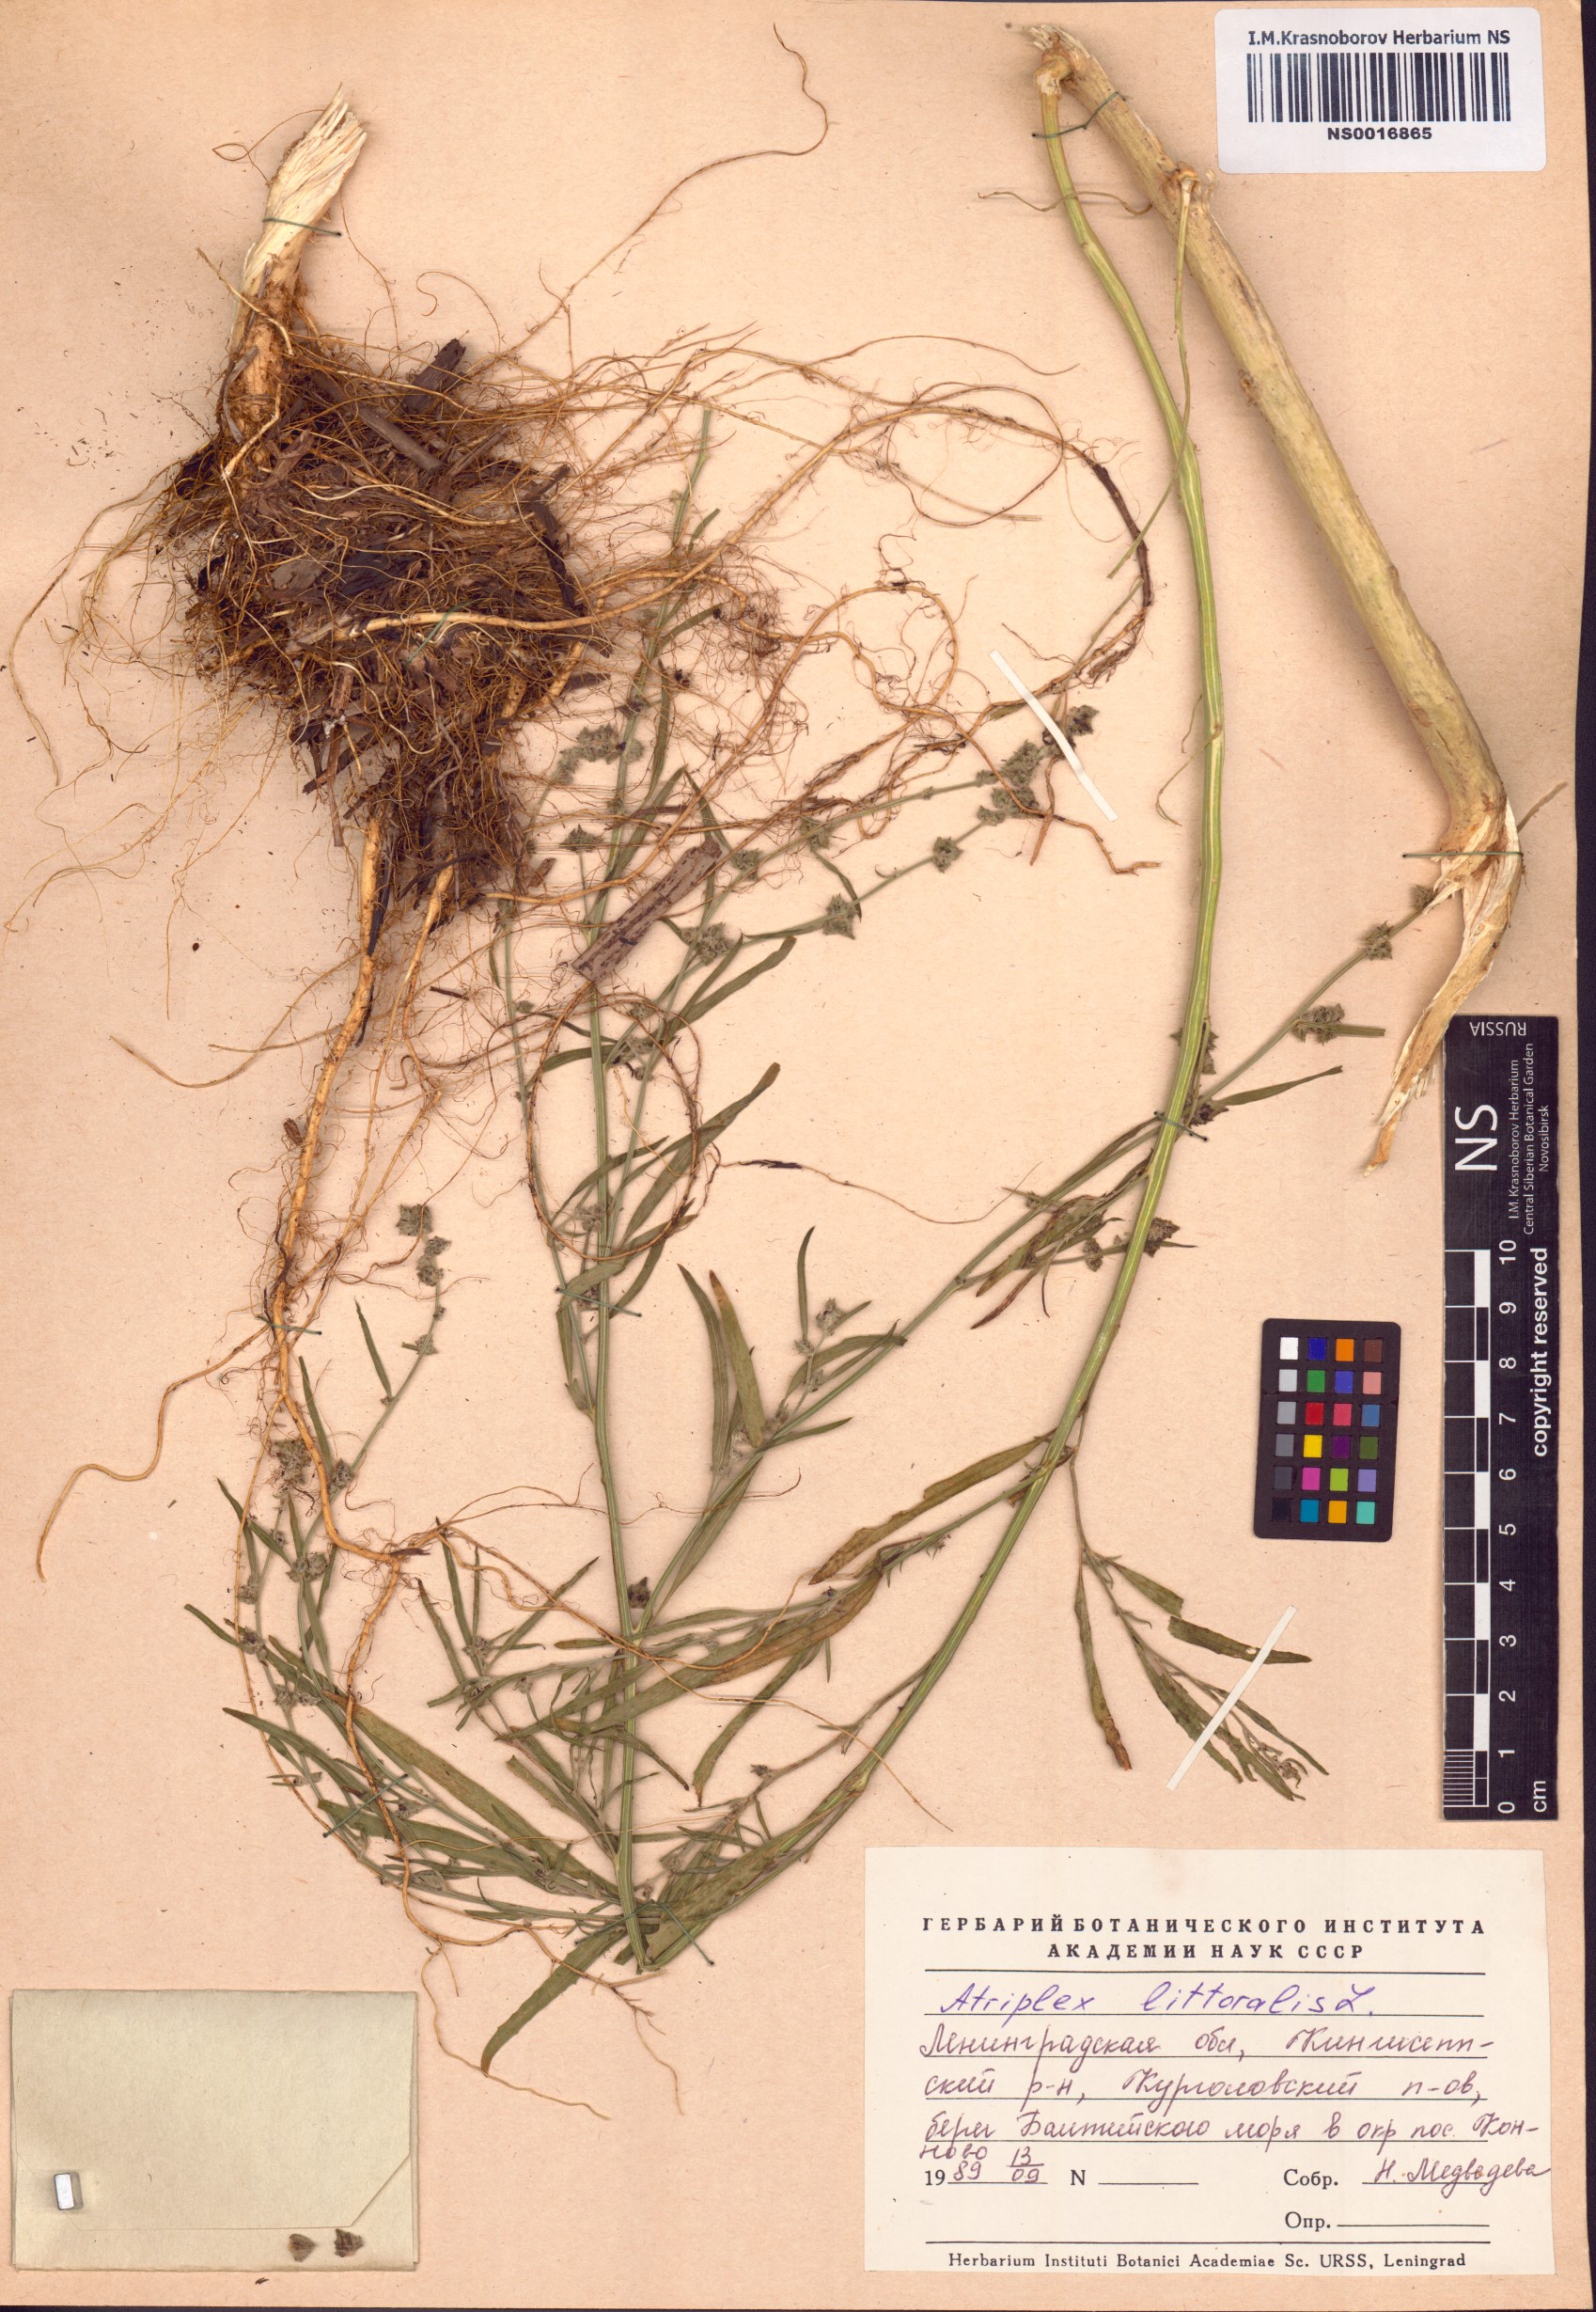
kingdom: Plantae
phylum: Tracheophyta
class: Magnoliopsida
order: Caryophyllales
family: Amaranthaceae
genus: Atriplex
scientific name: Atriplex littoralis
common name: Grass-leaved orache
